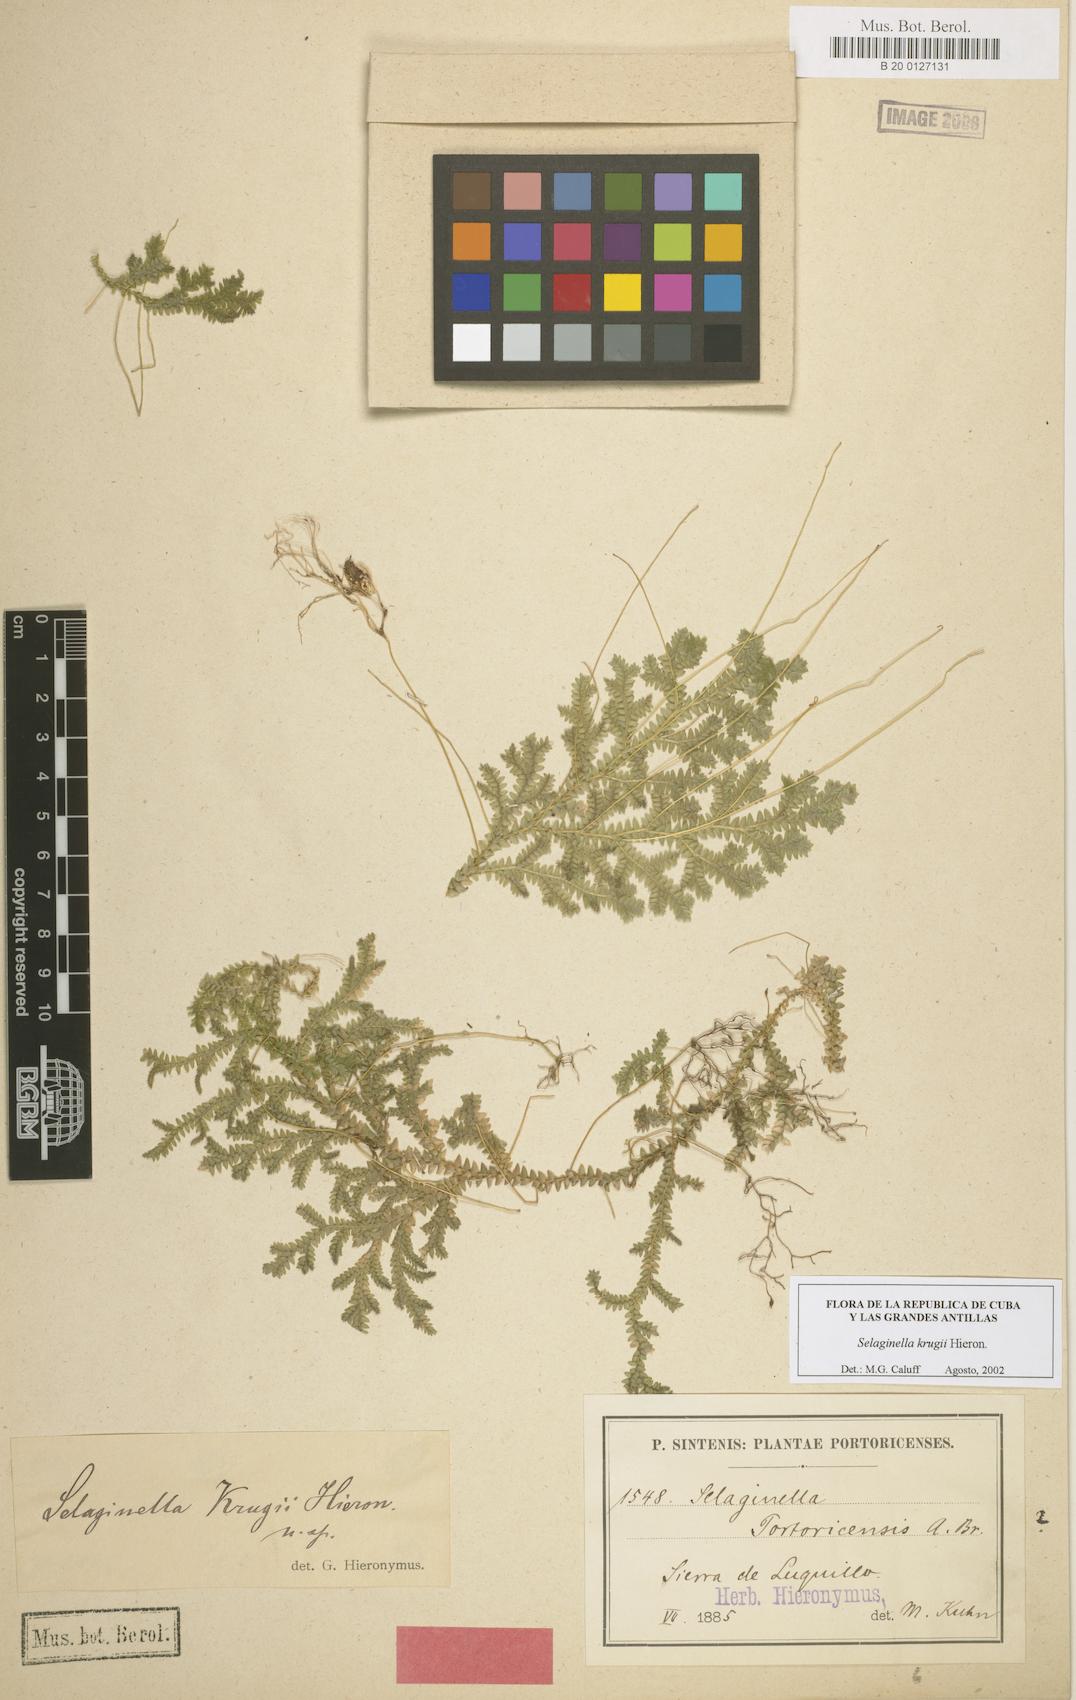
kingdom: Plantae
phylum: Tracheophyta
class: Lycopodiopsida
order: Selaginellales
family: Selaginellaceae
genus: Selaginella
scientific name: Selaginella krugii
